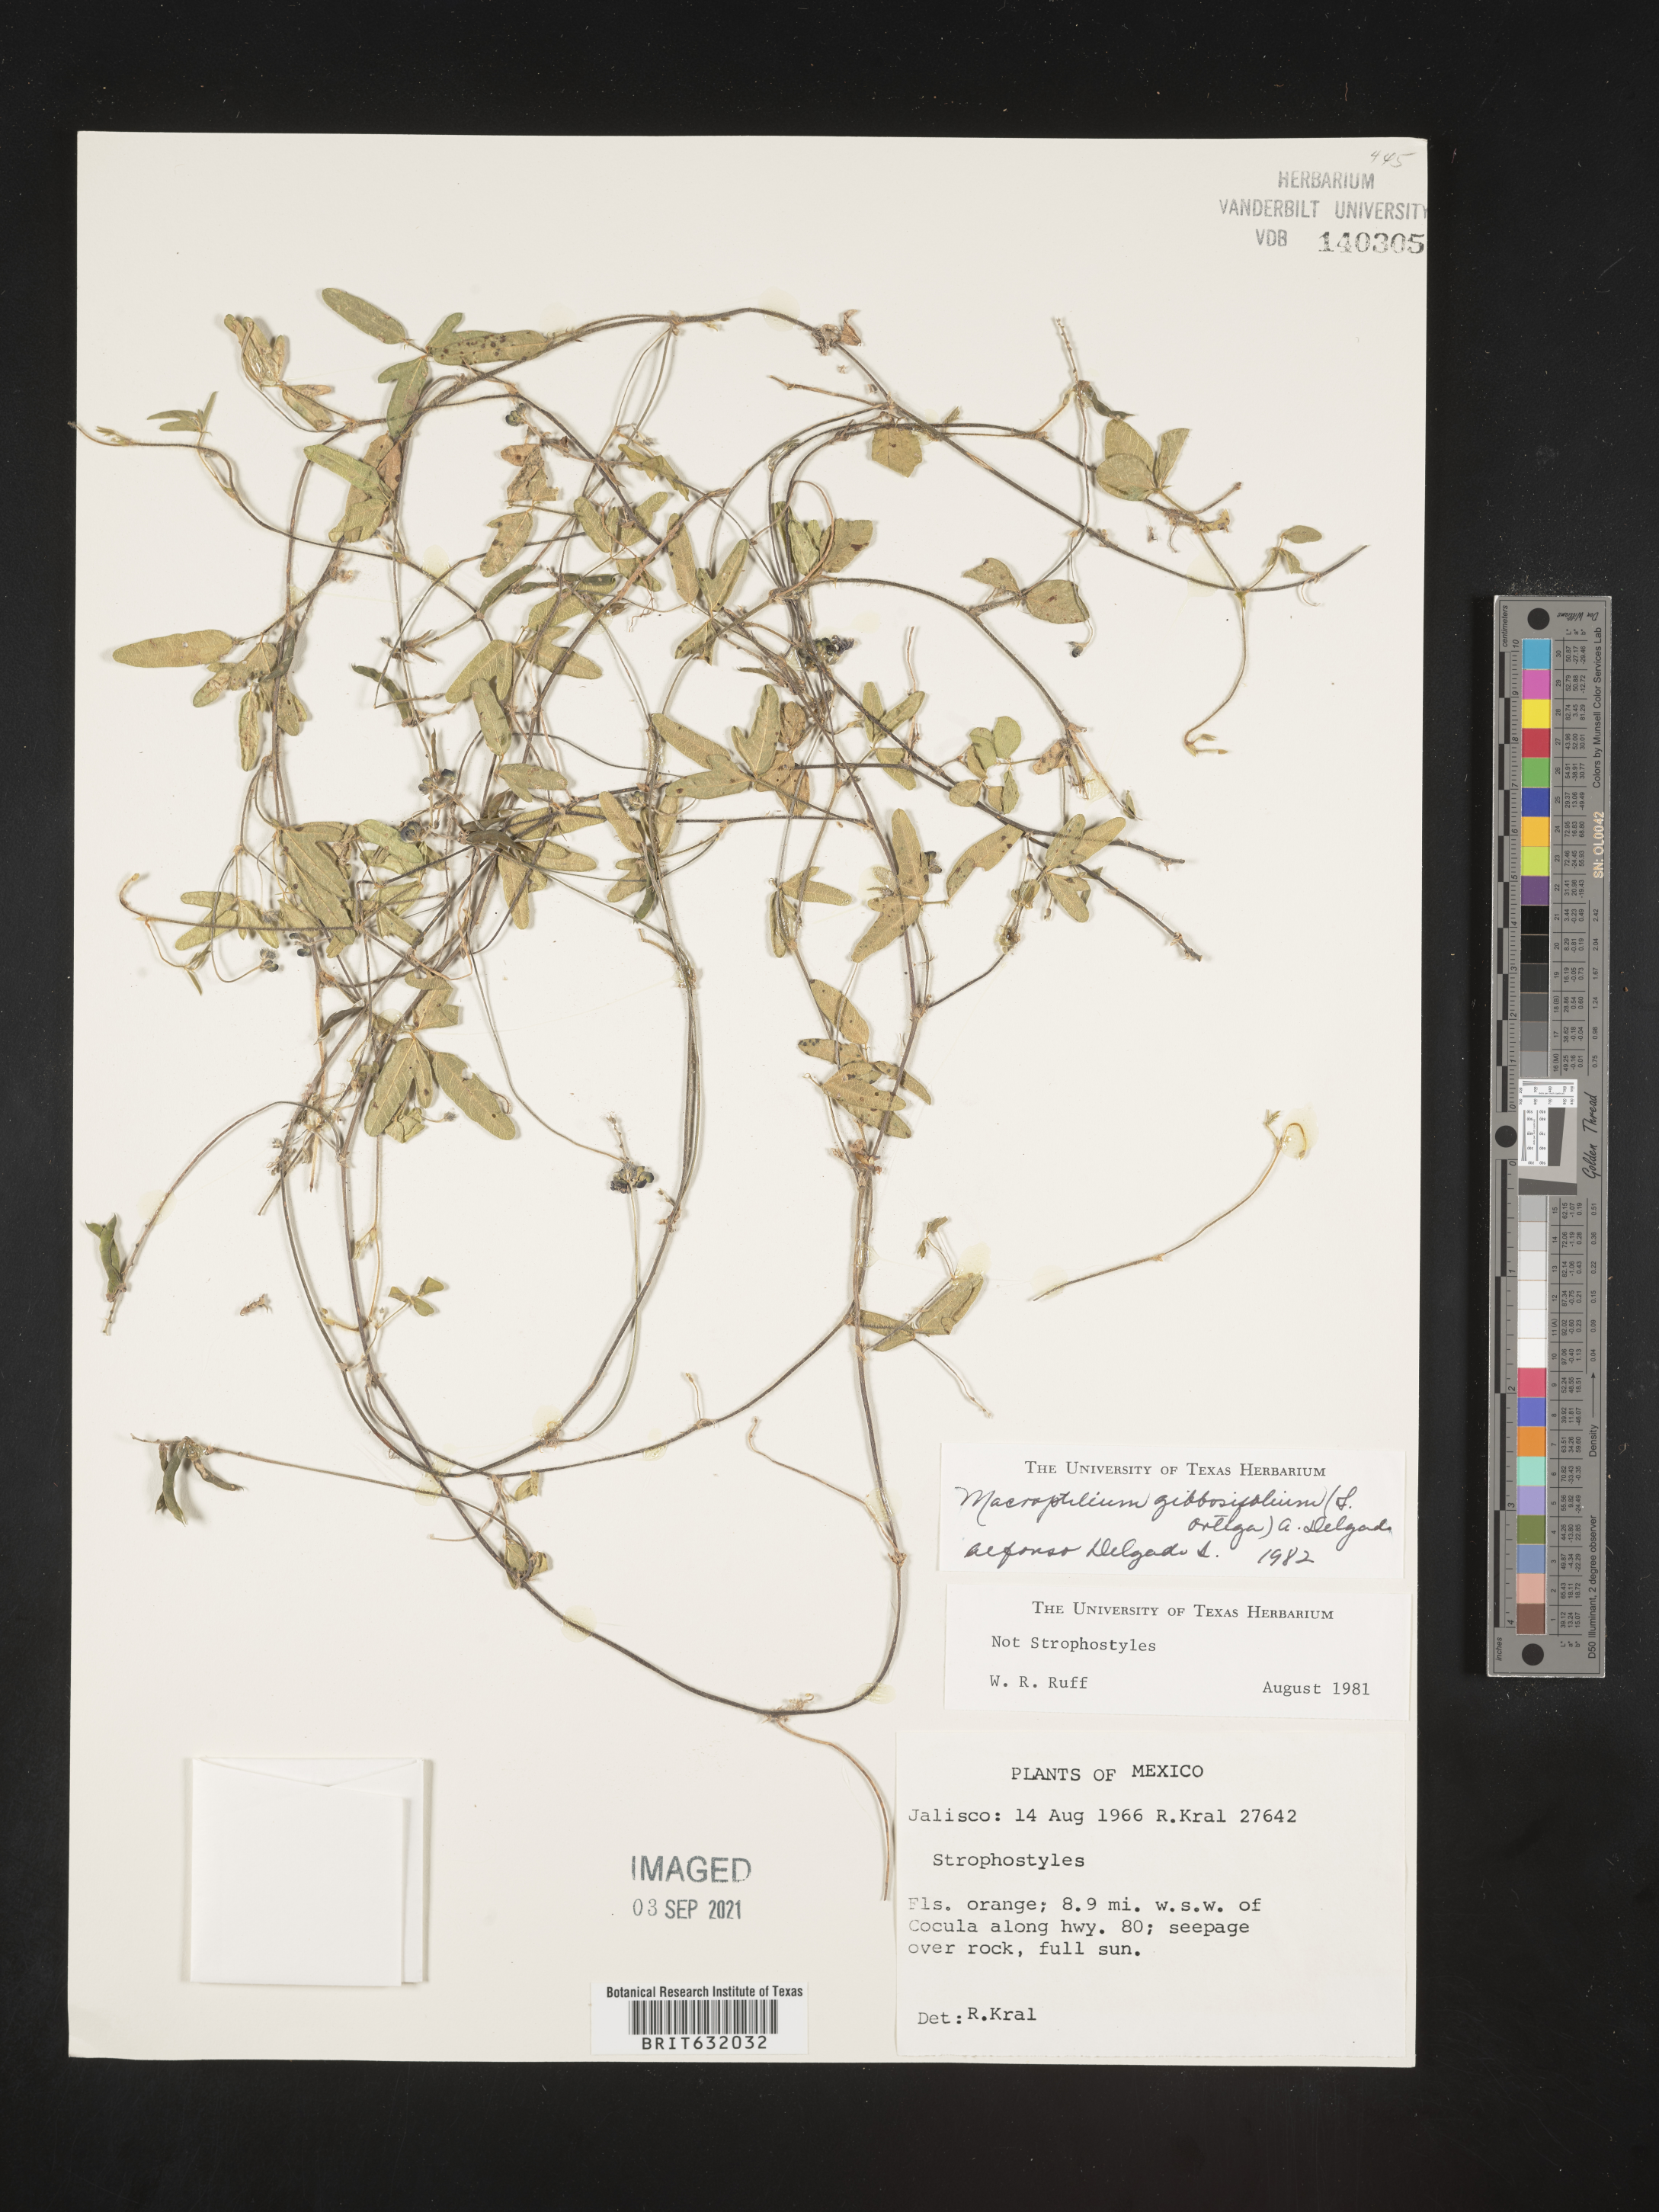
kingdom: Plantae
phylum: Tracheophyta
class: Magnoliopsida
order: Fabales
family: Fabaceae
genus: Macroptilium
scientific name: Macroptilium
